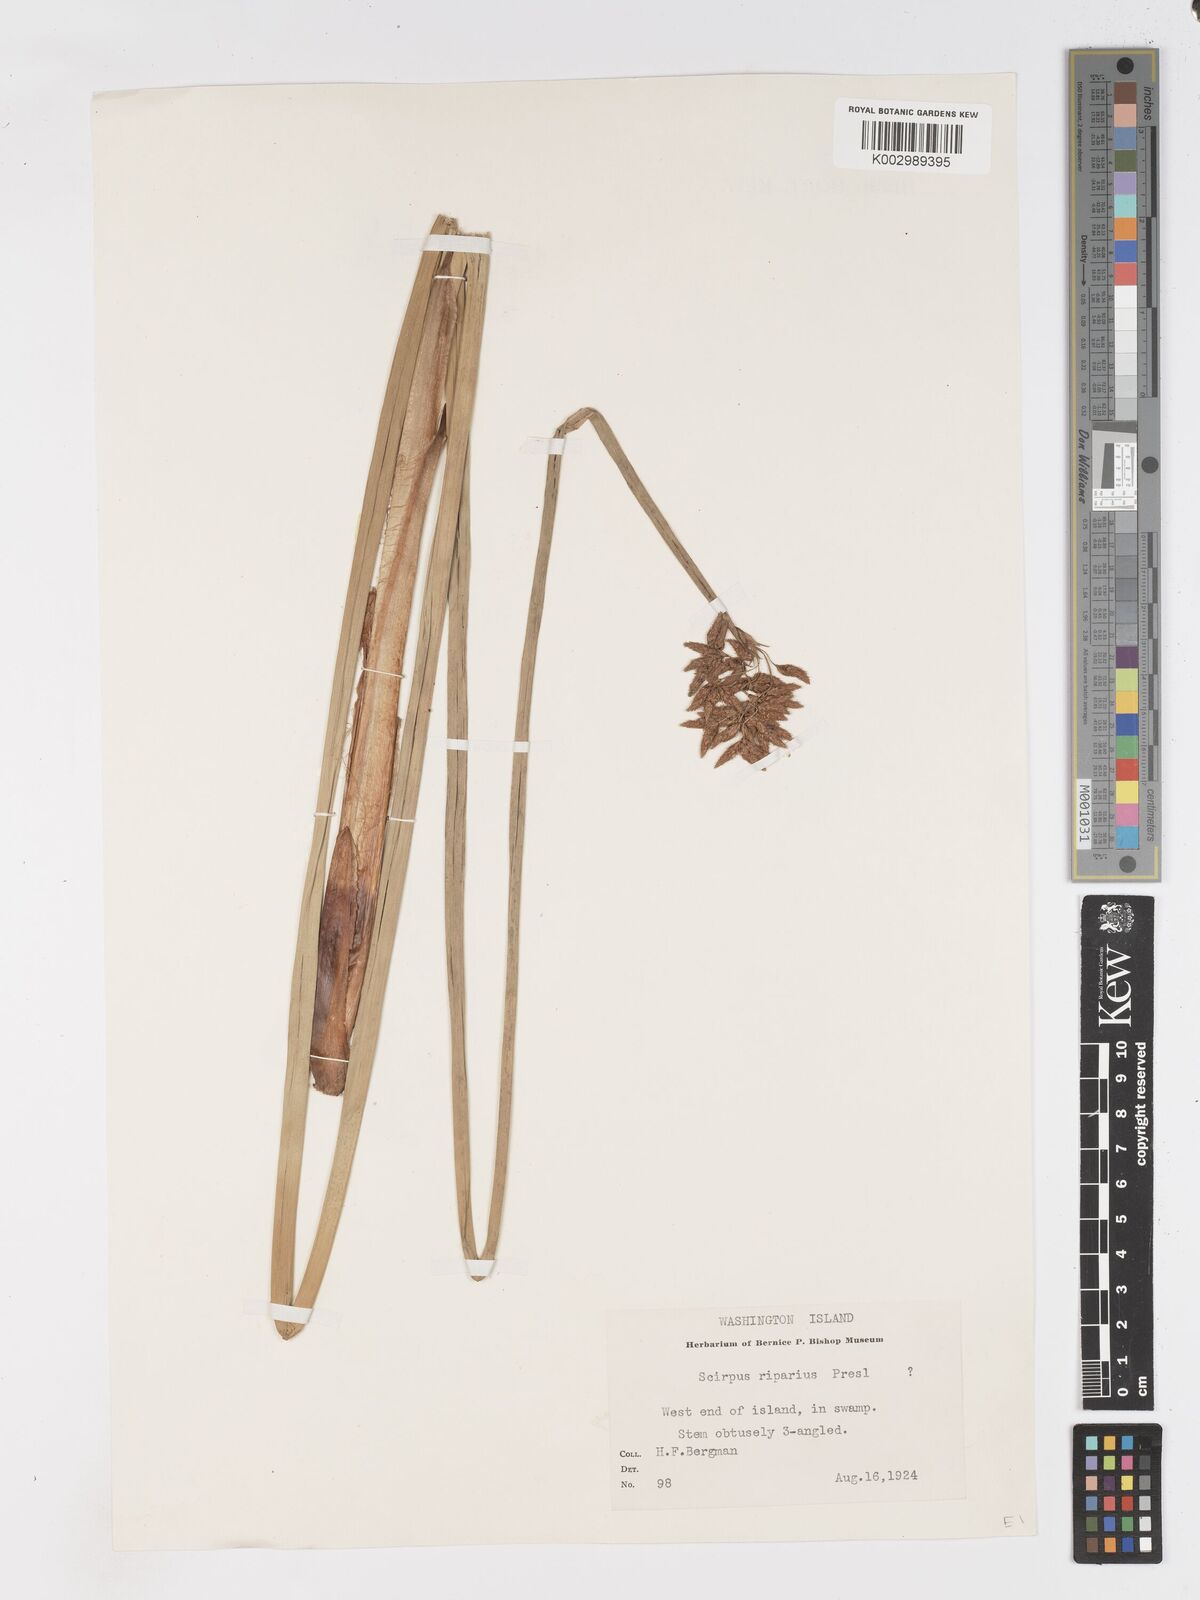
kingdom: Plantae
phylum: Tracheophyta
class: Liliopsida
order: Poales
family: Cyperaceae
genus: Schoenoplectus
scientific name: Schoenoplectus californicus
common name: California bulrush
